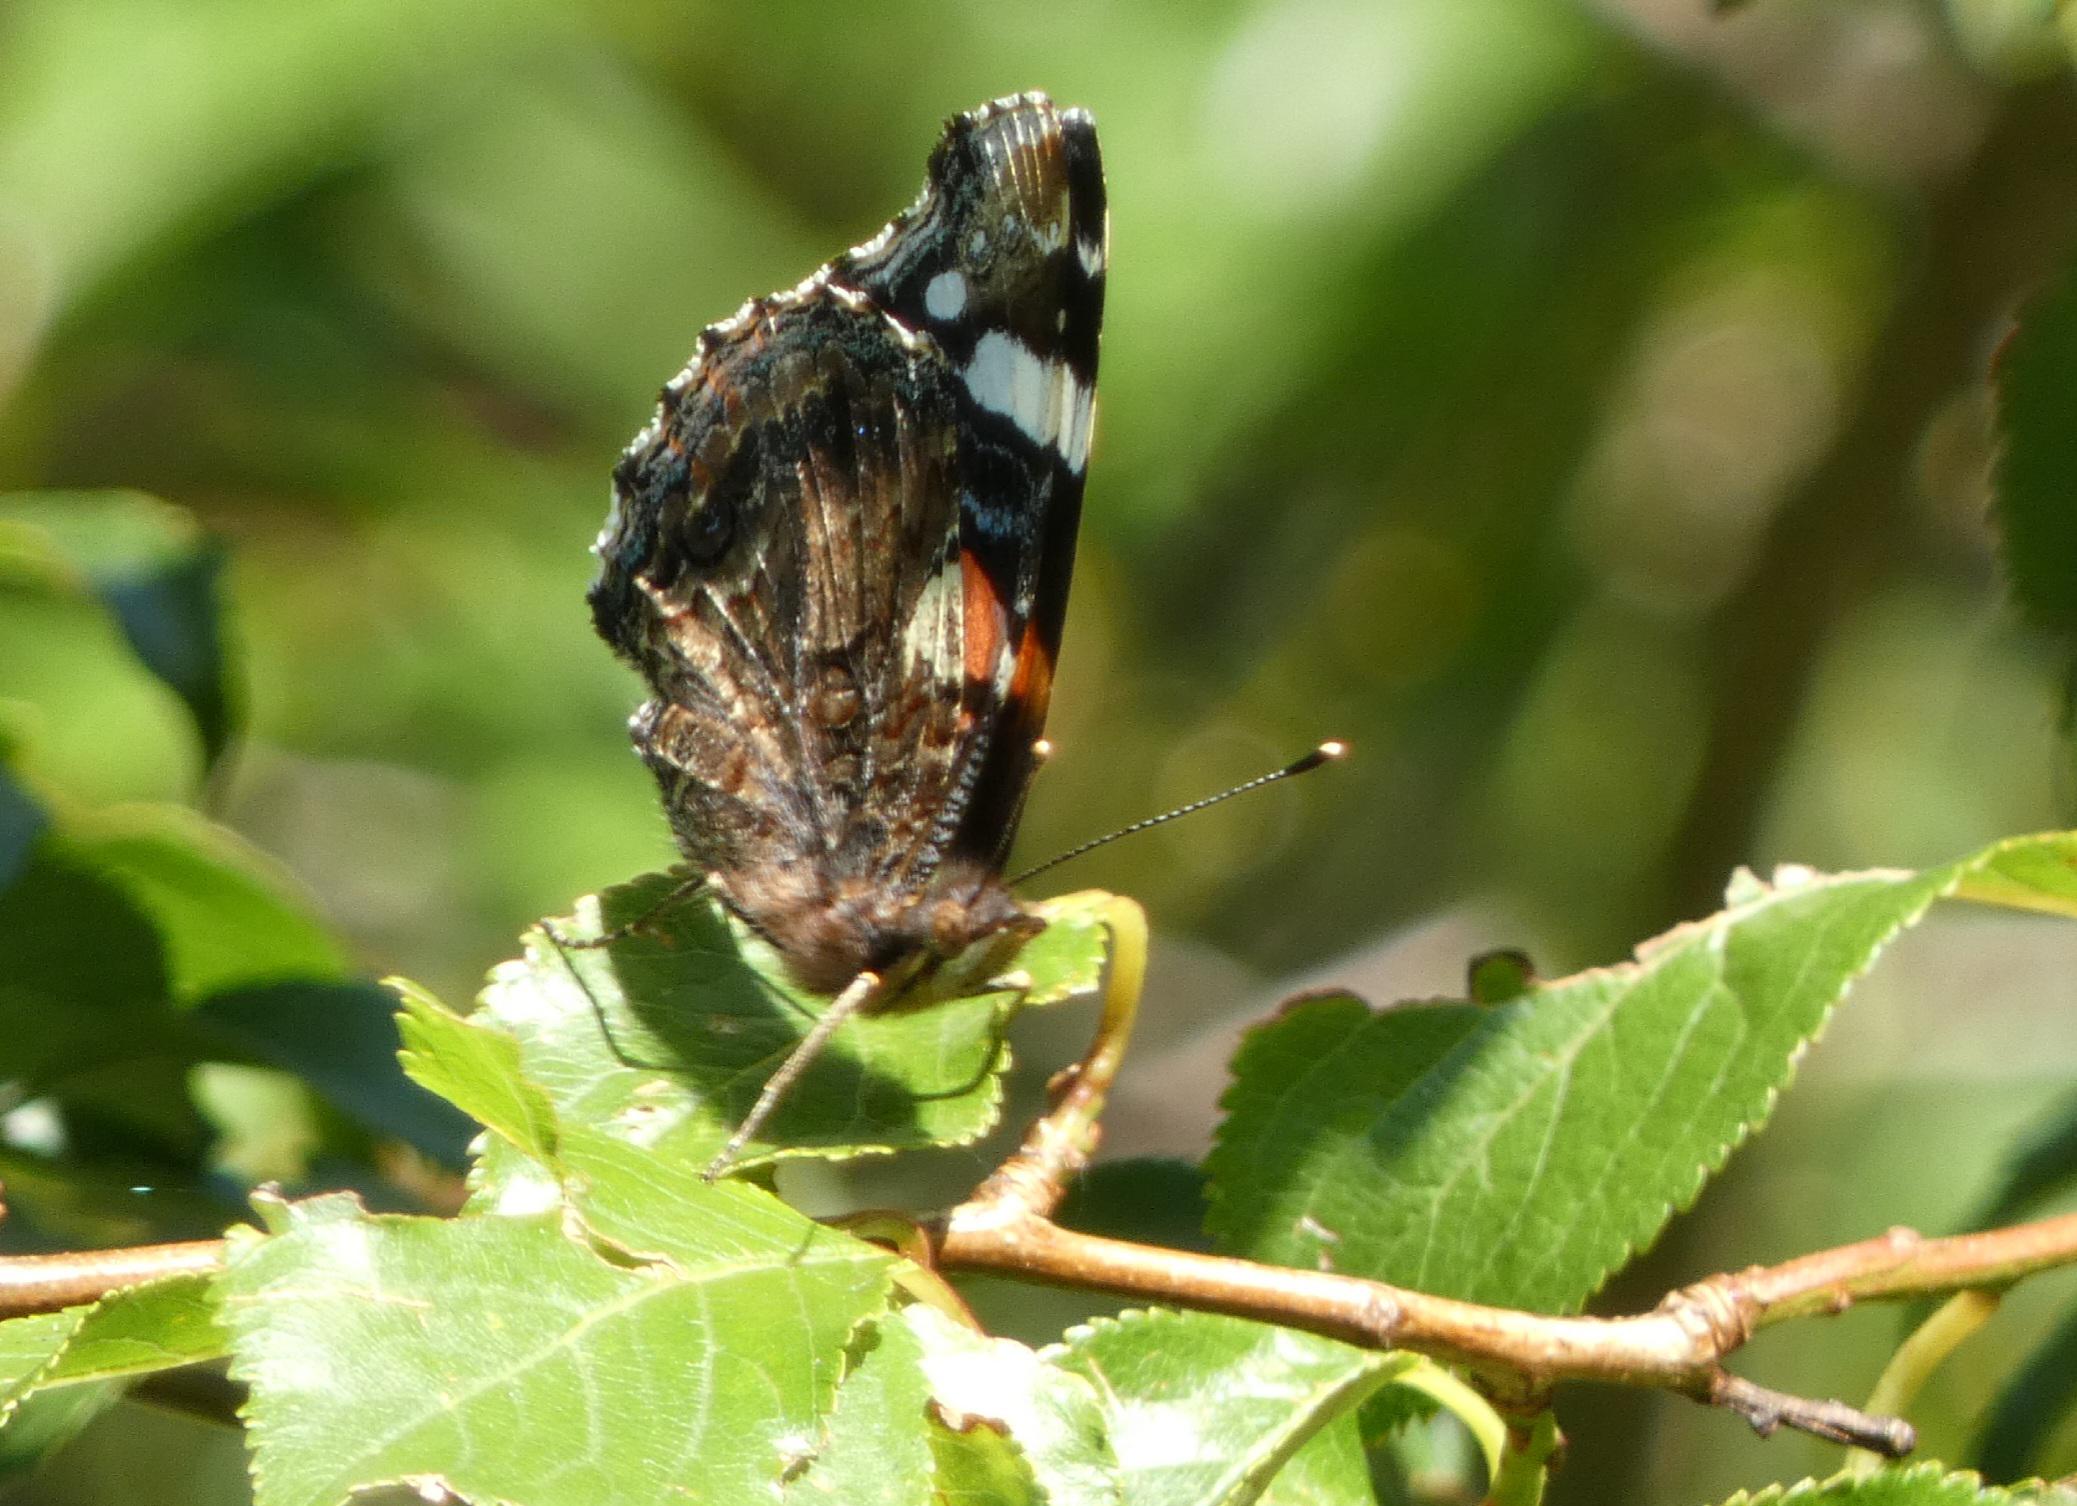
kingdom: Animalia
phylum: Arthropoda
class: Insecta
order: Lepidoptera
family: Nymphalidae
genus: Vanessa
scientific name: Vanessa atalanta
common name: Admiral
